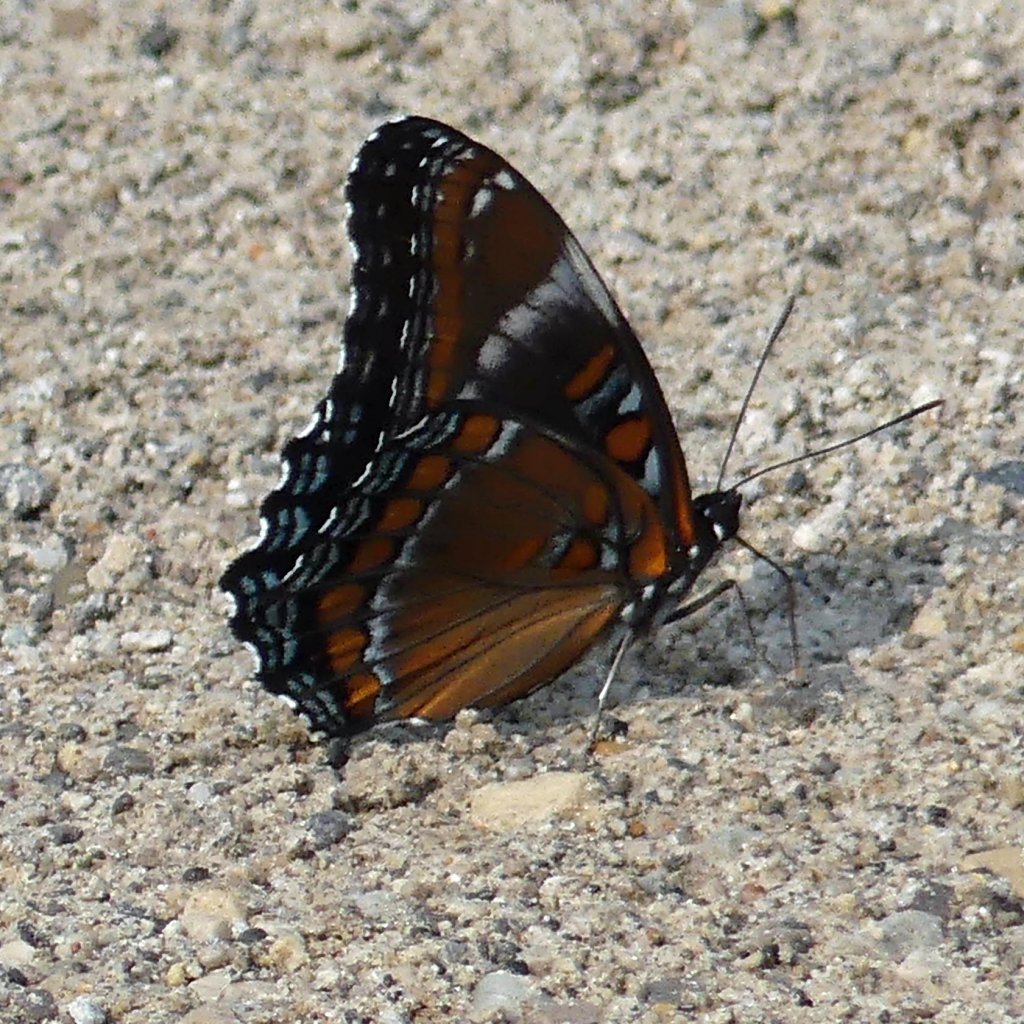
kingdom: Animalia
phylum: Arthropoda
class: Insecta
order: Lepidoptera
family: Nymphalidae
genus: Limenitis
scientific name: Limenitis
